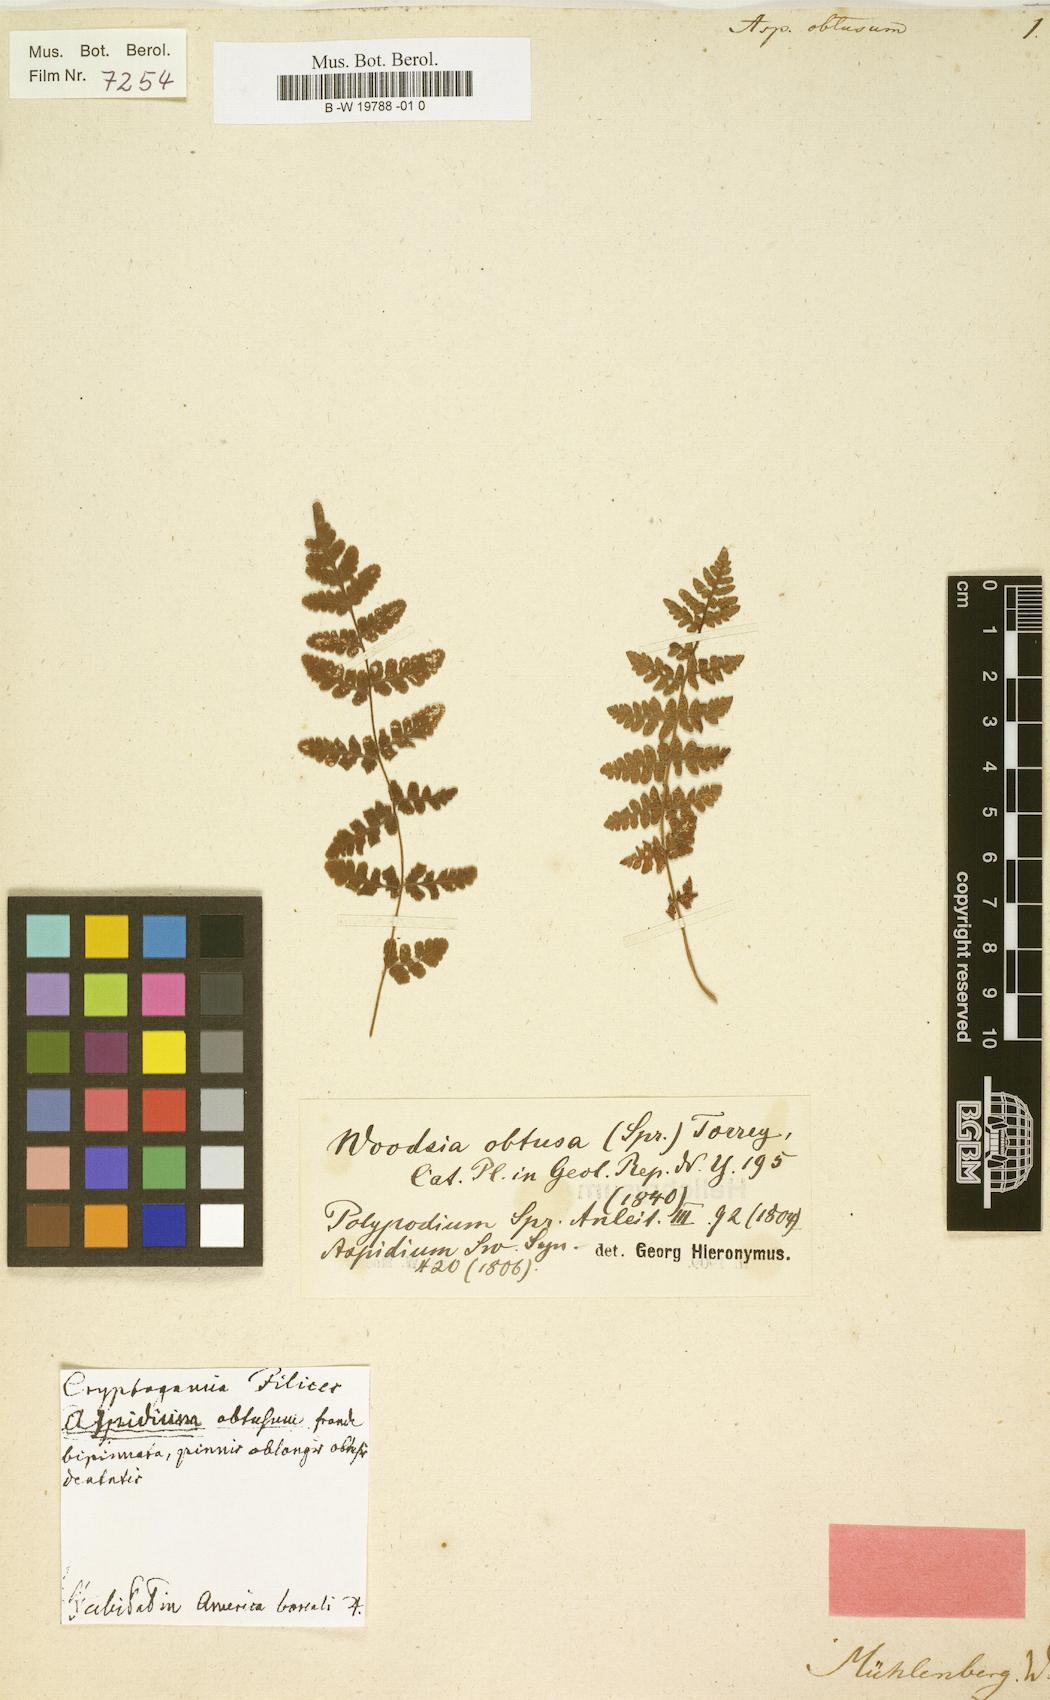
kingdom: Plantae
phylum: Tracheophyta
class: Polypodiopsida
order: Polypodiales
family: Woodsiaceae
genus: Physematium
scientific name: Physematium obtusum
